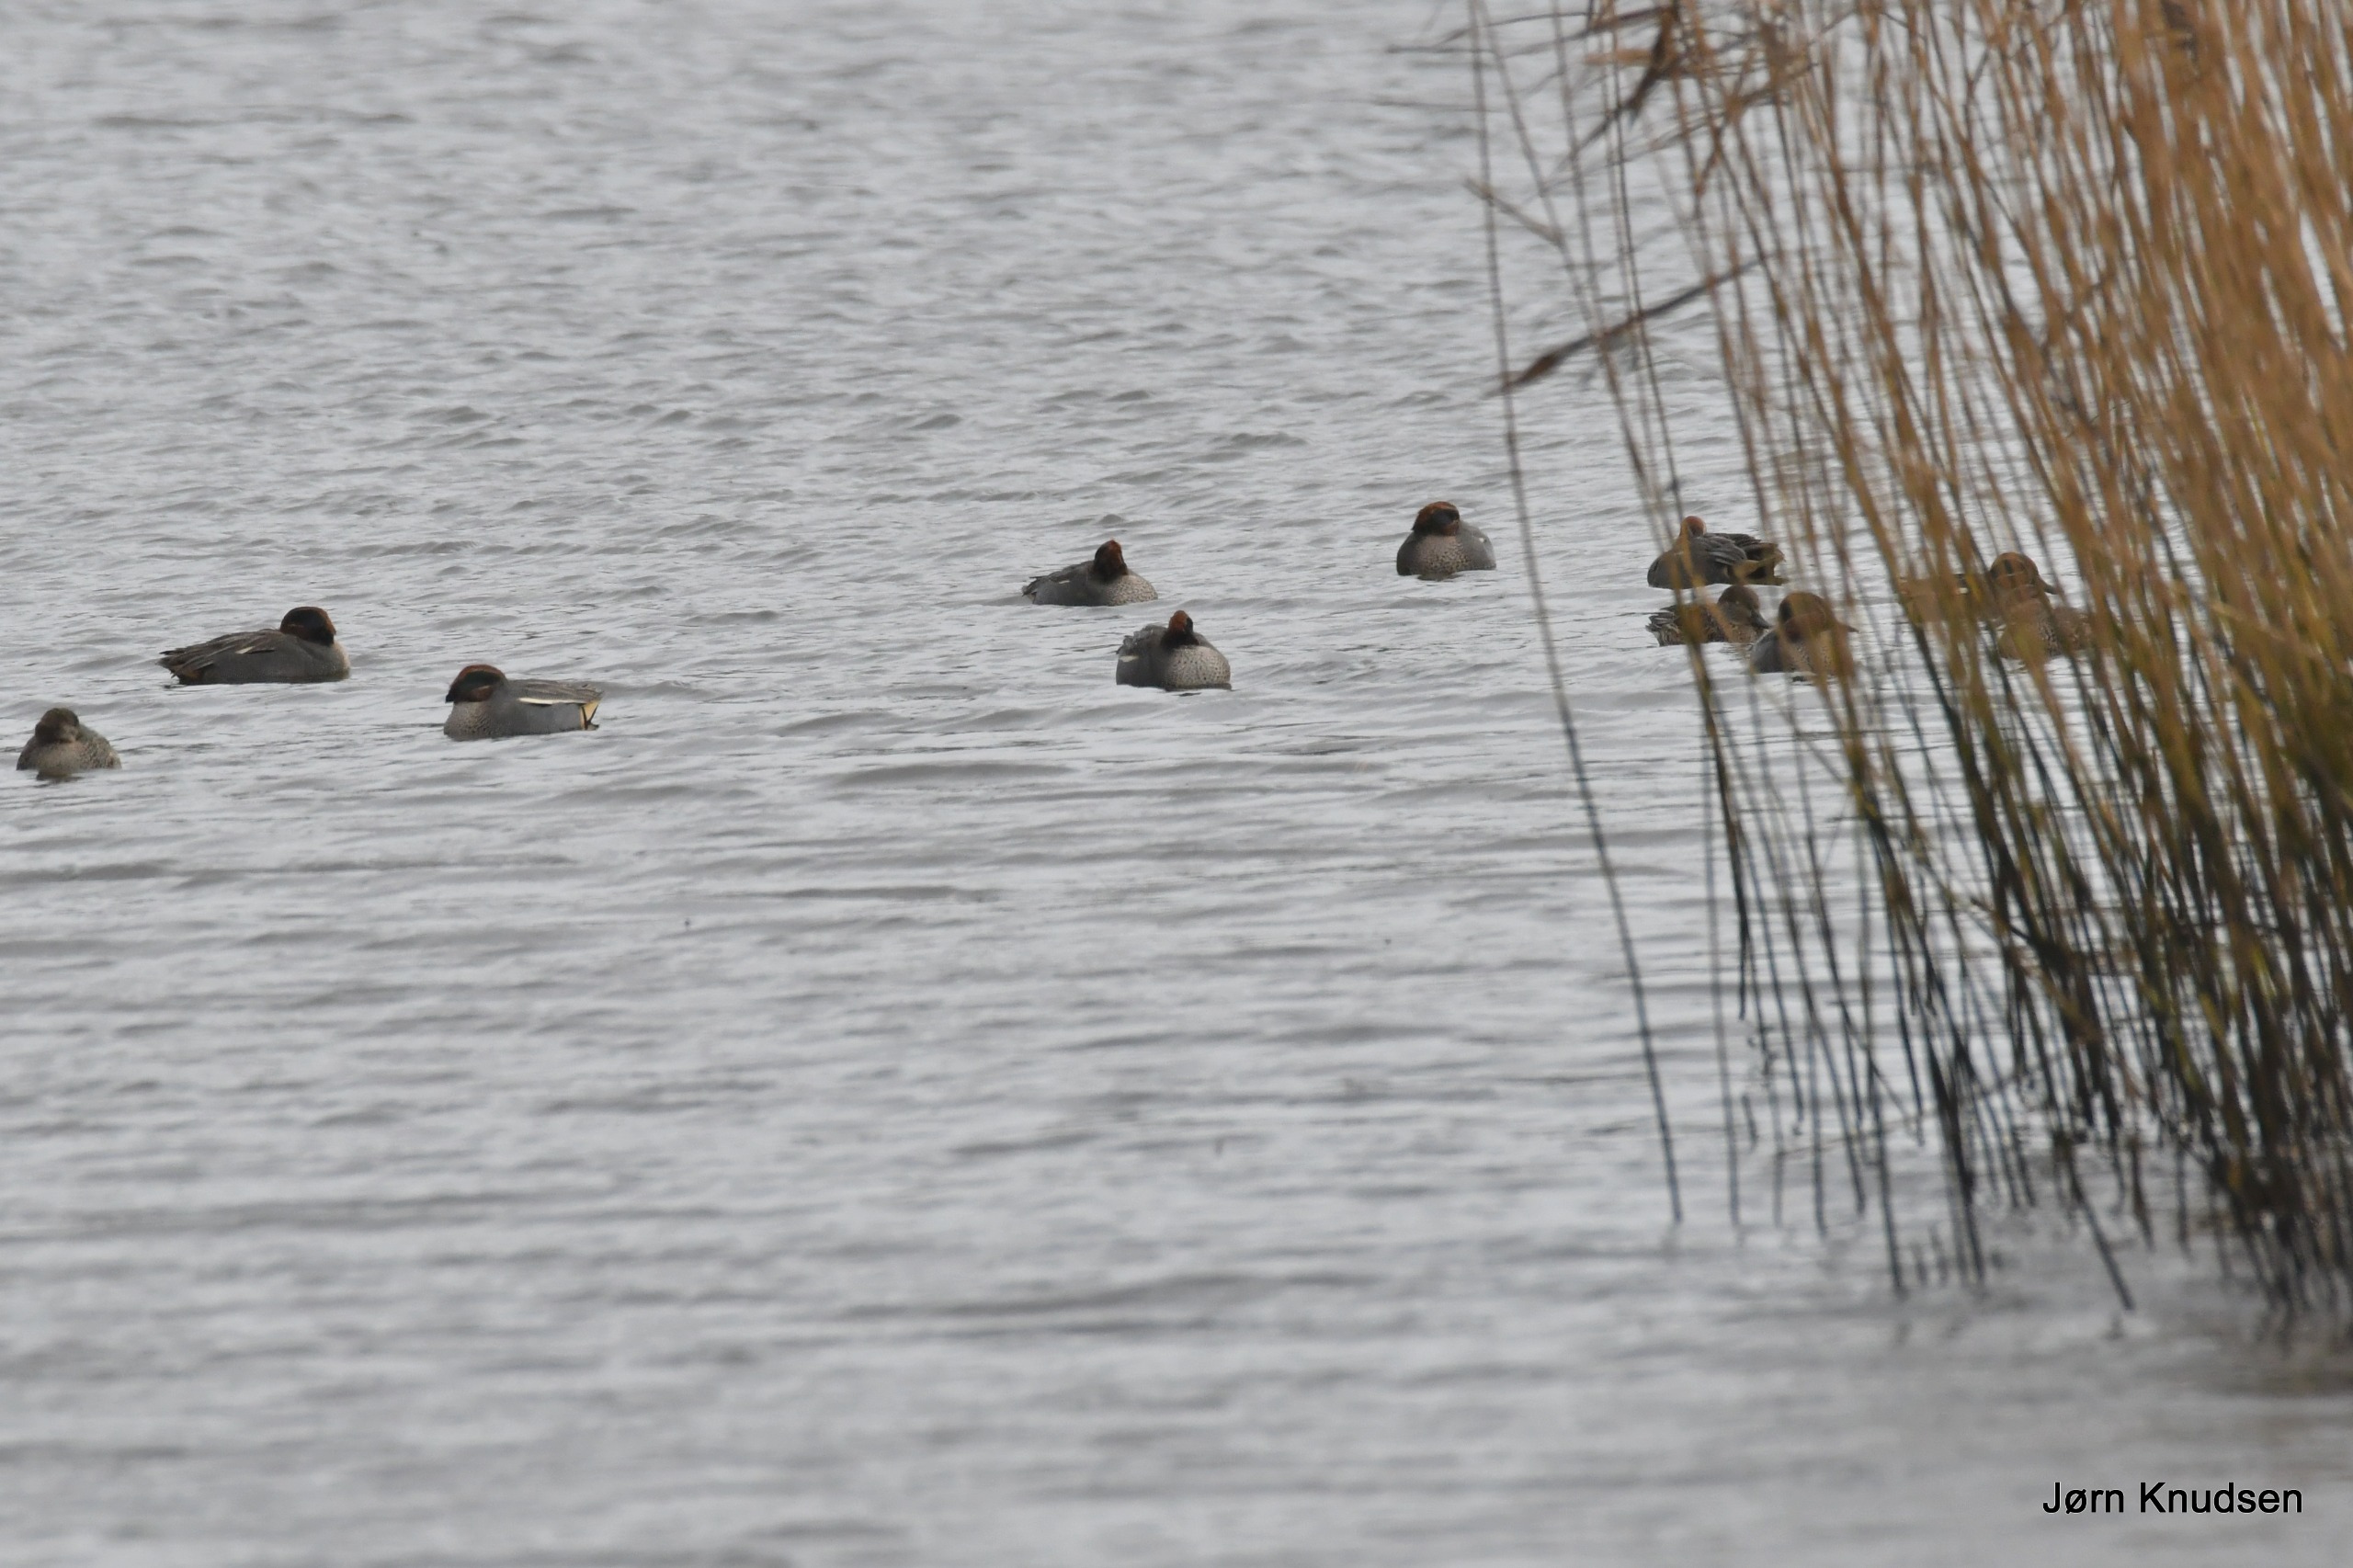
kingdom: Animalia
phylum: Chordata
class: Aves
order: Anseriformes
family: Anatidae
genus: Anas
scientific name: Anas crecca
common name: Krikand
